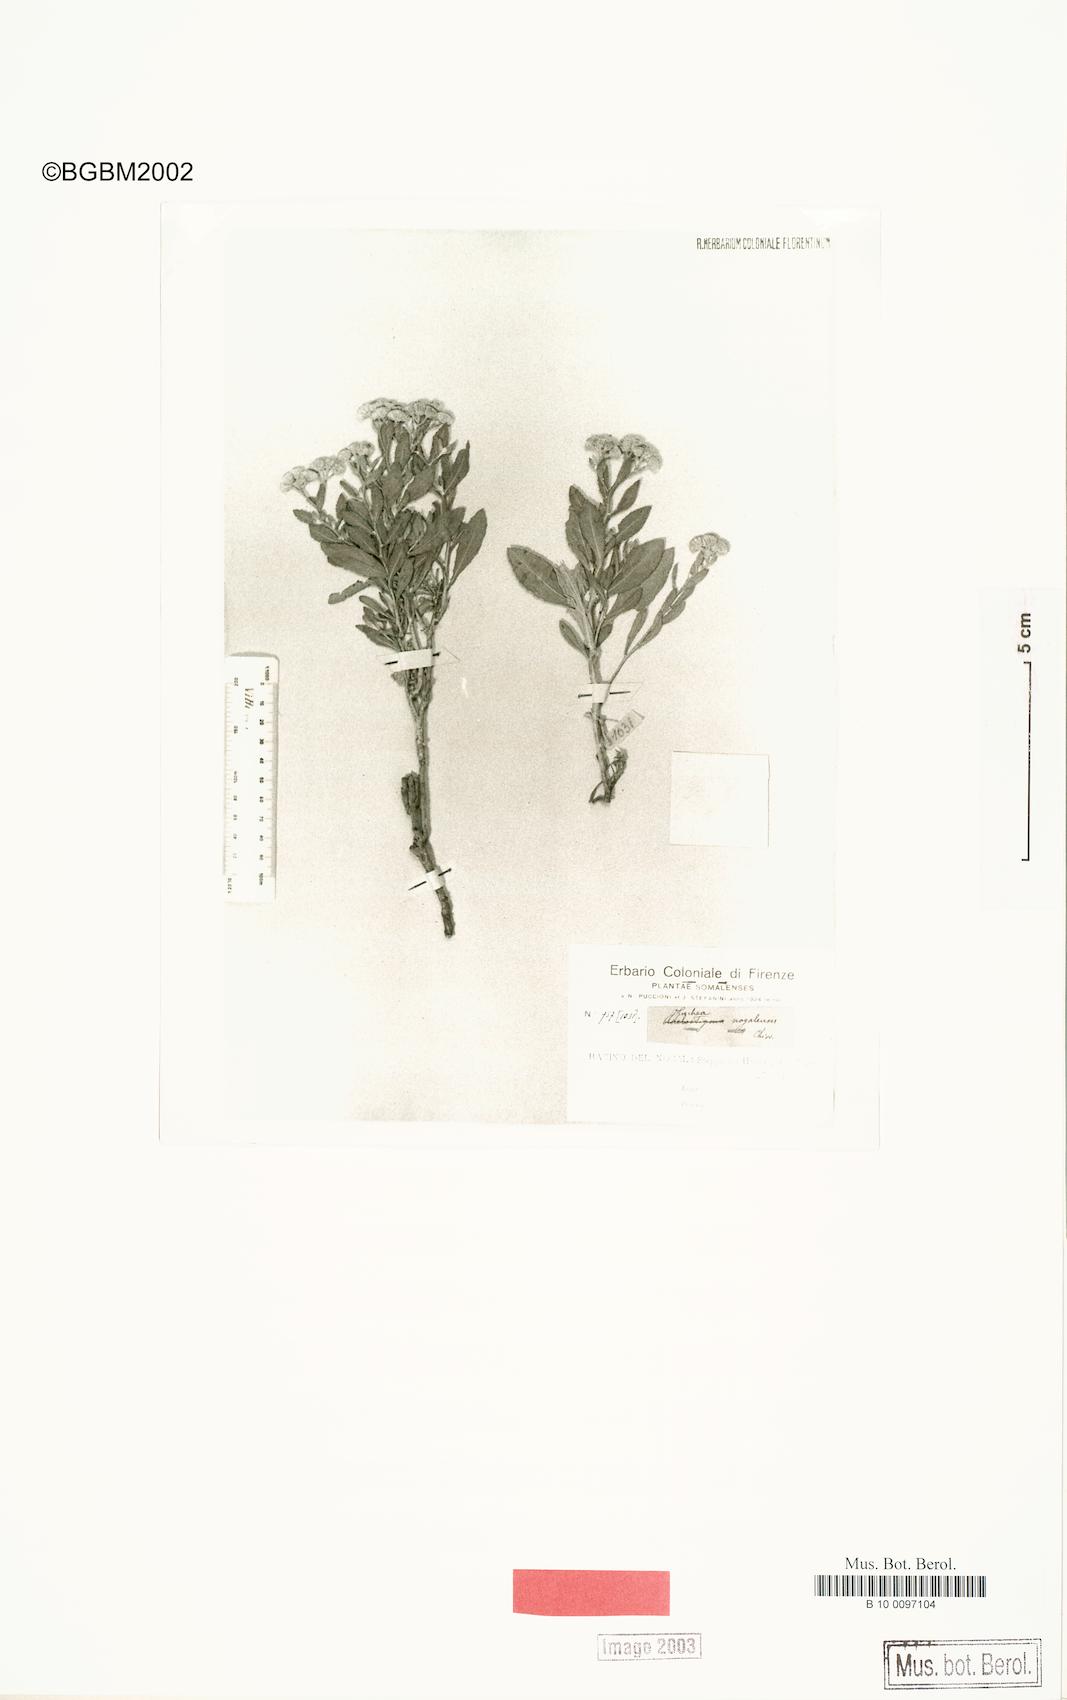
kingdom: Plantae
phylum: Tracheophyta
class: Magnoliopsida
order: Asterales
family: Asteraceae
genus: Pluchea
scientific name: Pluchea nogalensis
